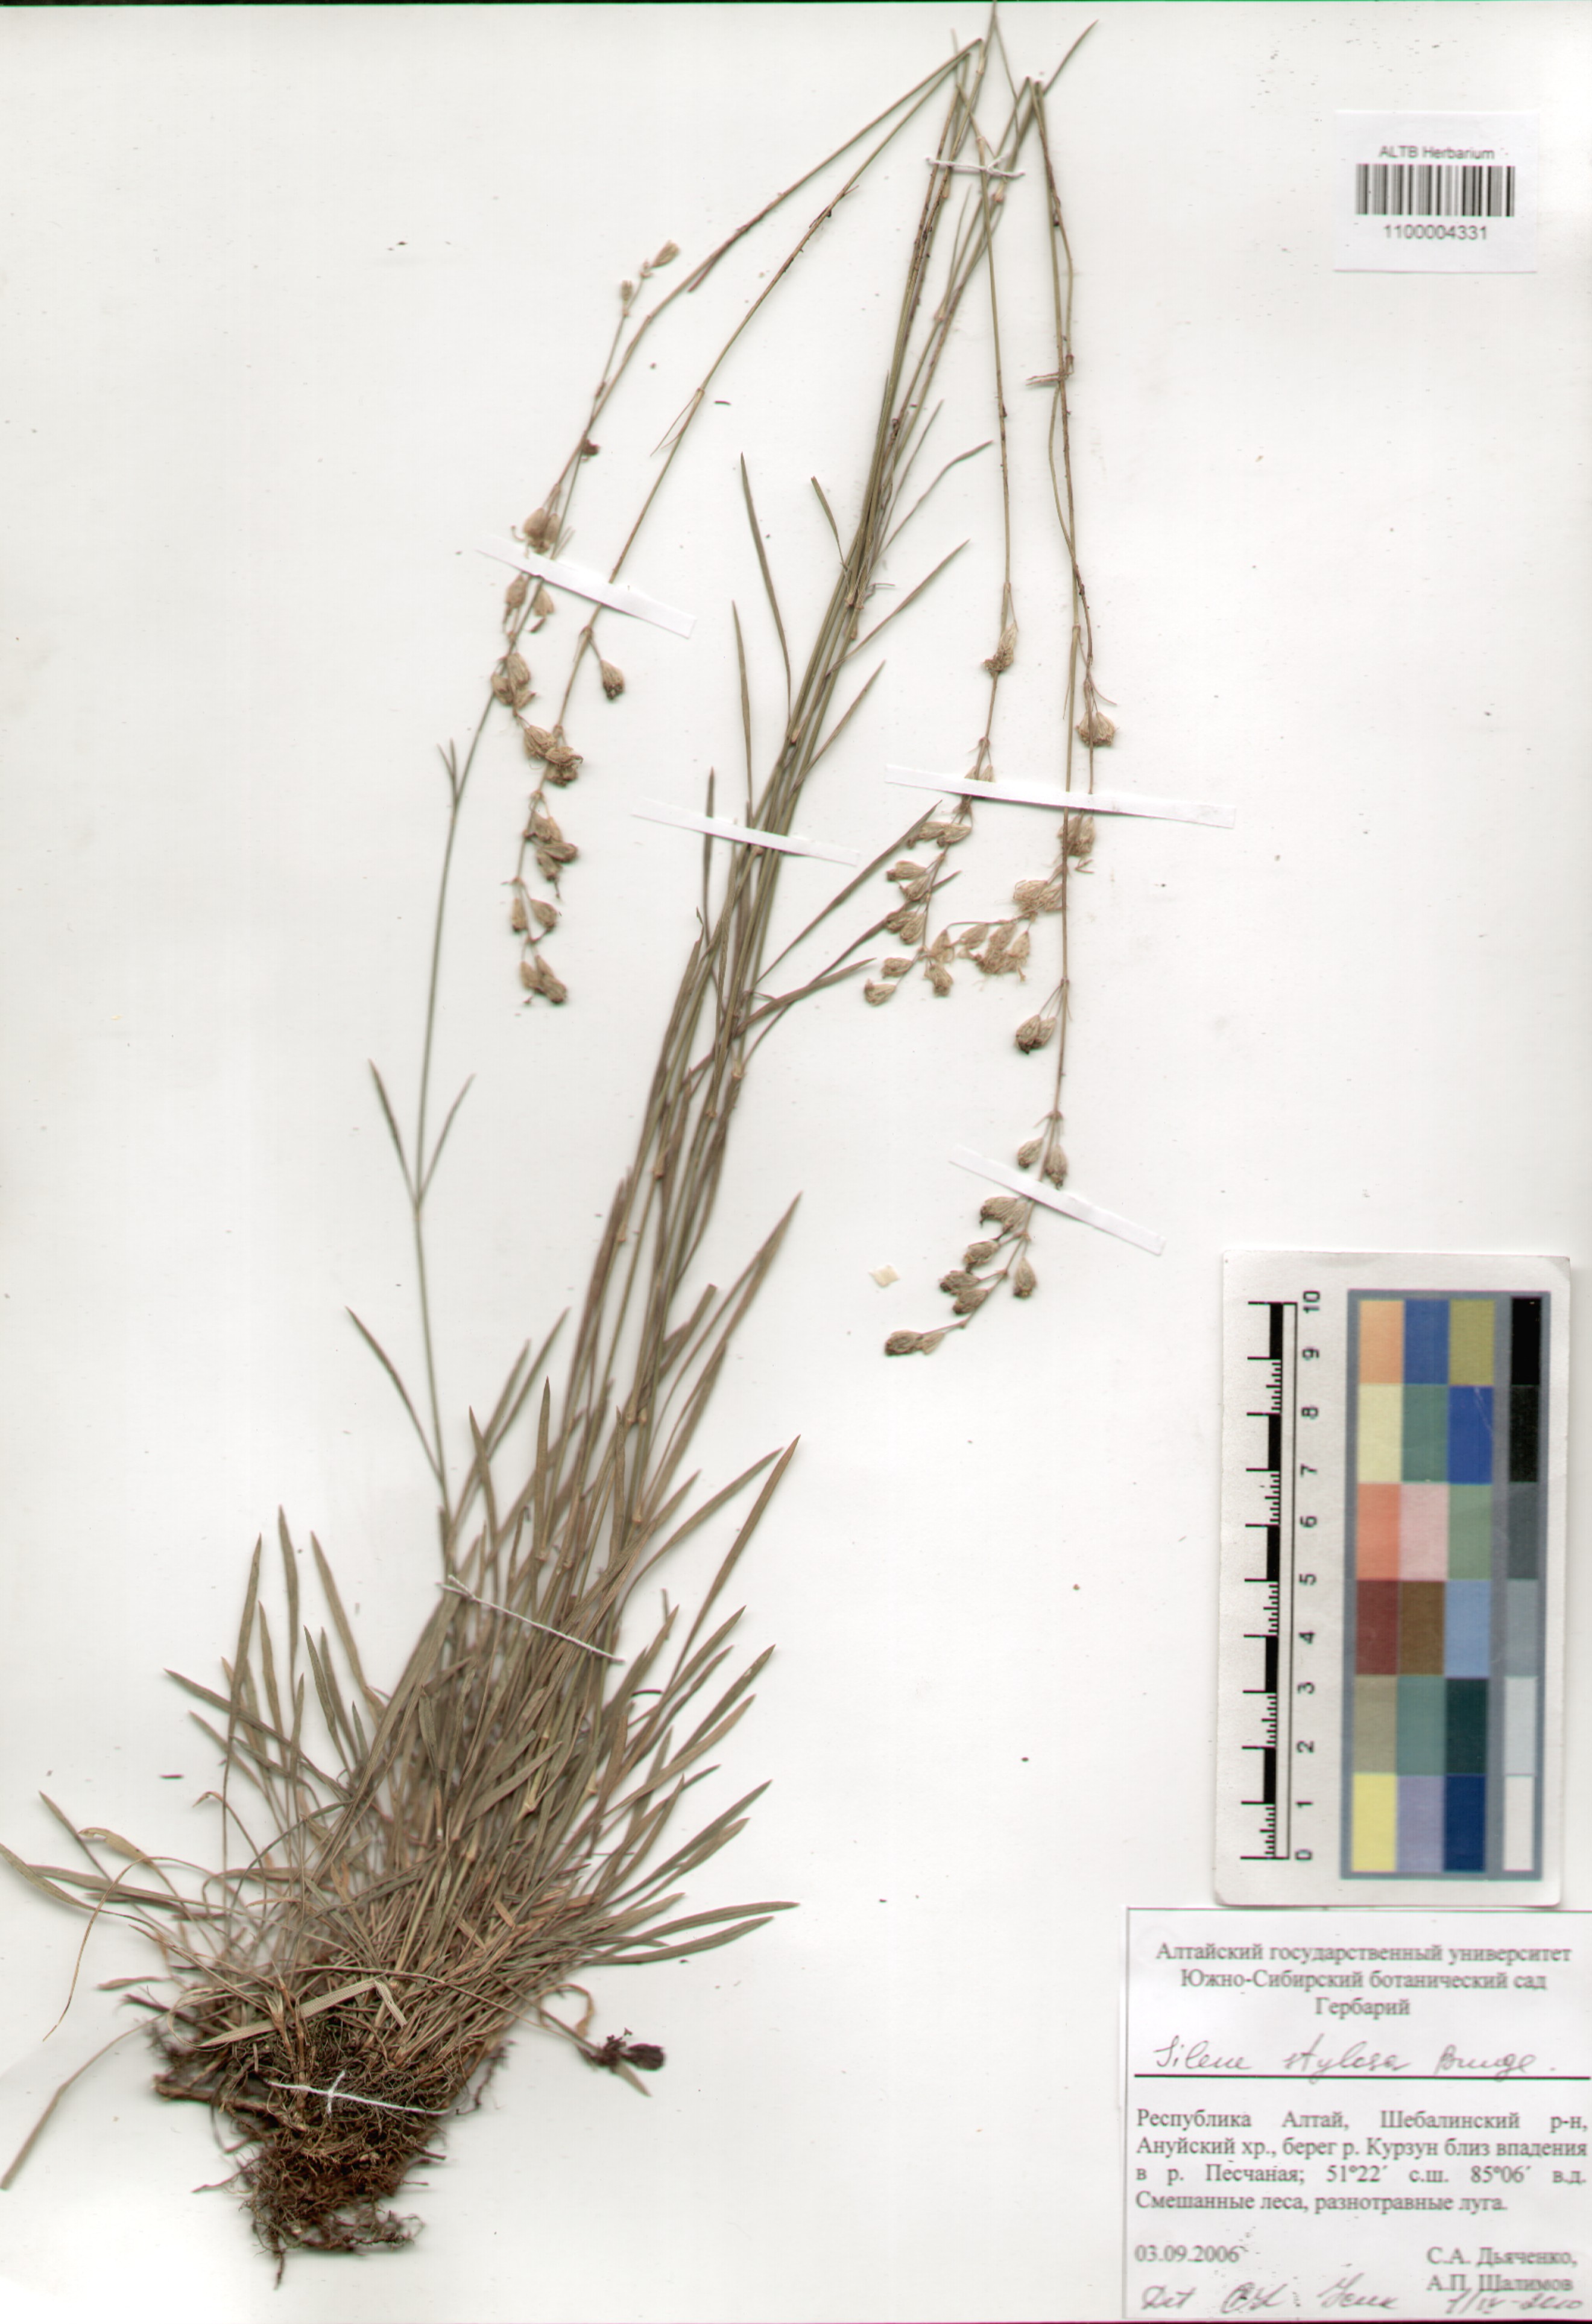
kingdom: Plantae
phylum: Tracheophyta
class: Magnoliopsida
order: Caryophyllales
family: Caryophyllaceae
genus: Silene
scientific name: Silene graminifolia
